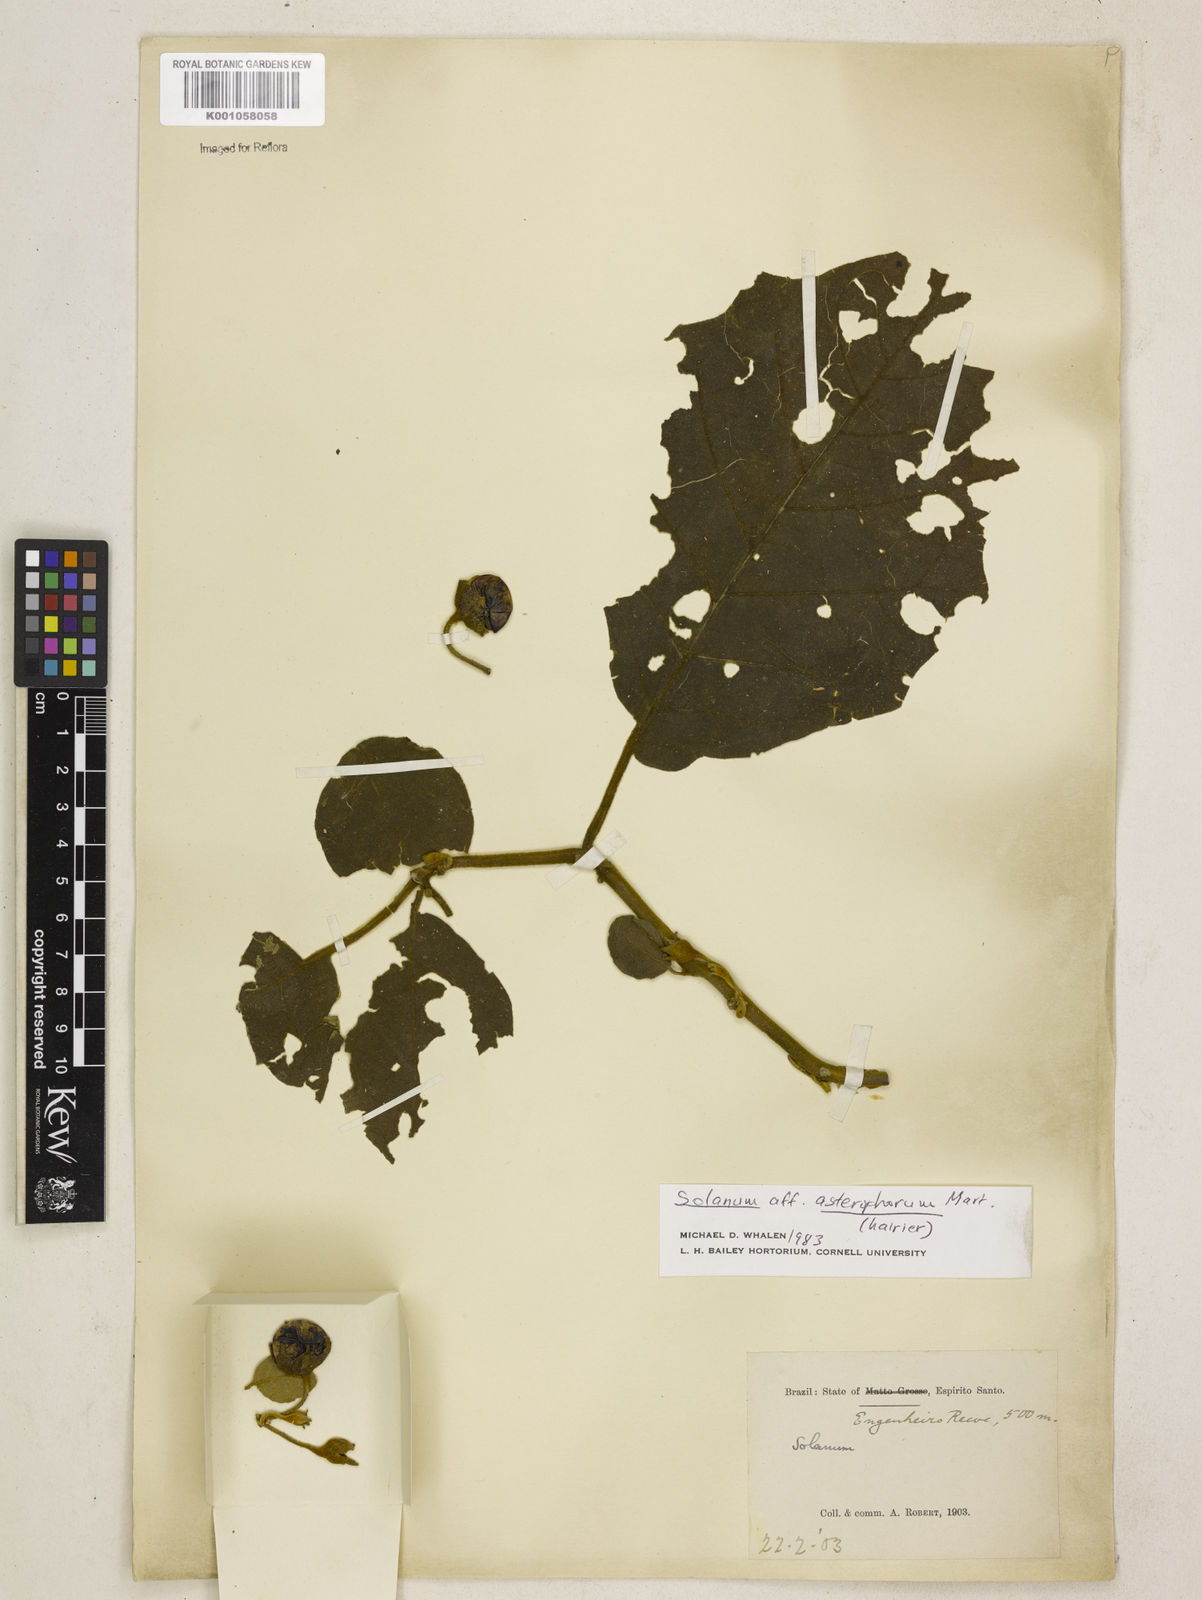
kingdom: Plantae
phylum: Tracheophyta
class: Magnoliopsida
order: Solanales
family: Solanaceae
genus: Solanum
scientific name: Solanum asterophorum
